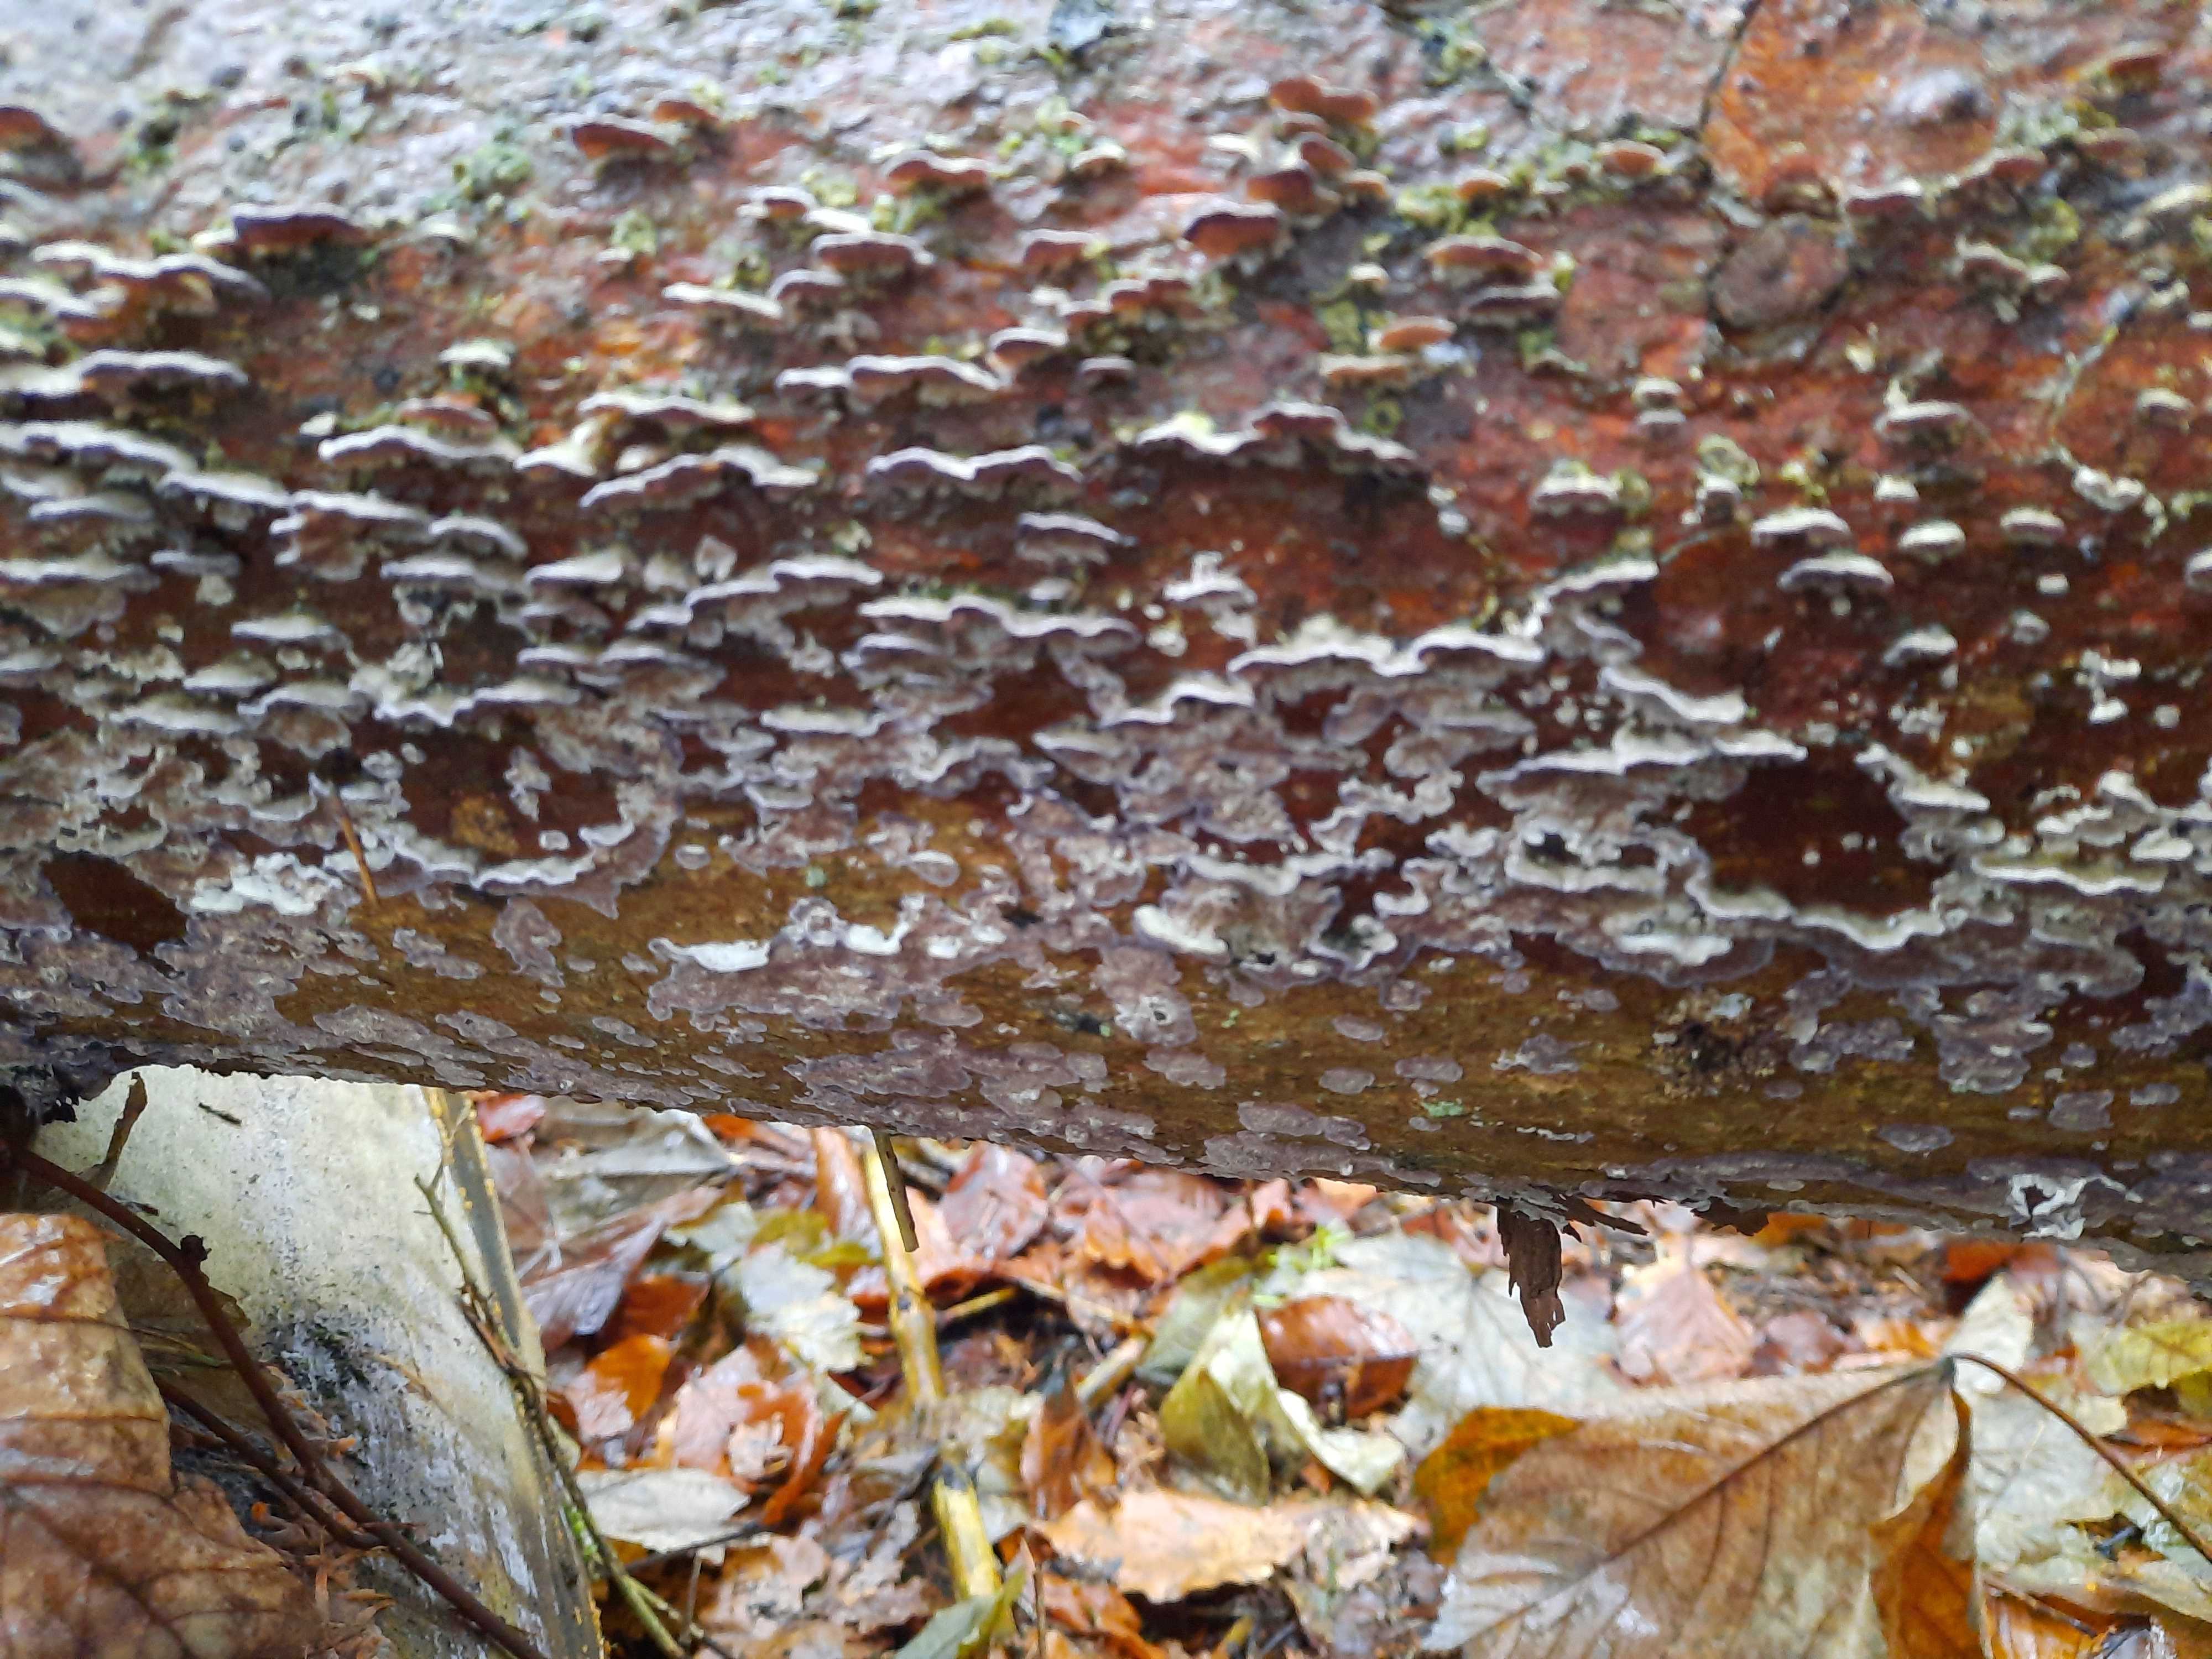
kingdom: Fungi
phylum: Basidiomycota
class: Agaricomycetes
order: Hymenochaetales
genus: Trichaptum
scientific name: Trichaptum abietinum
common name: almindelig violporesvamp
